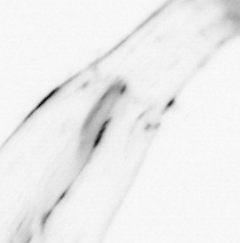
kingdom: Animalia
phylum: Chaetognatha
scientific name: Chaetognatha
